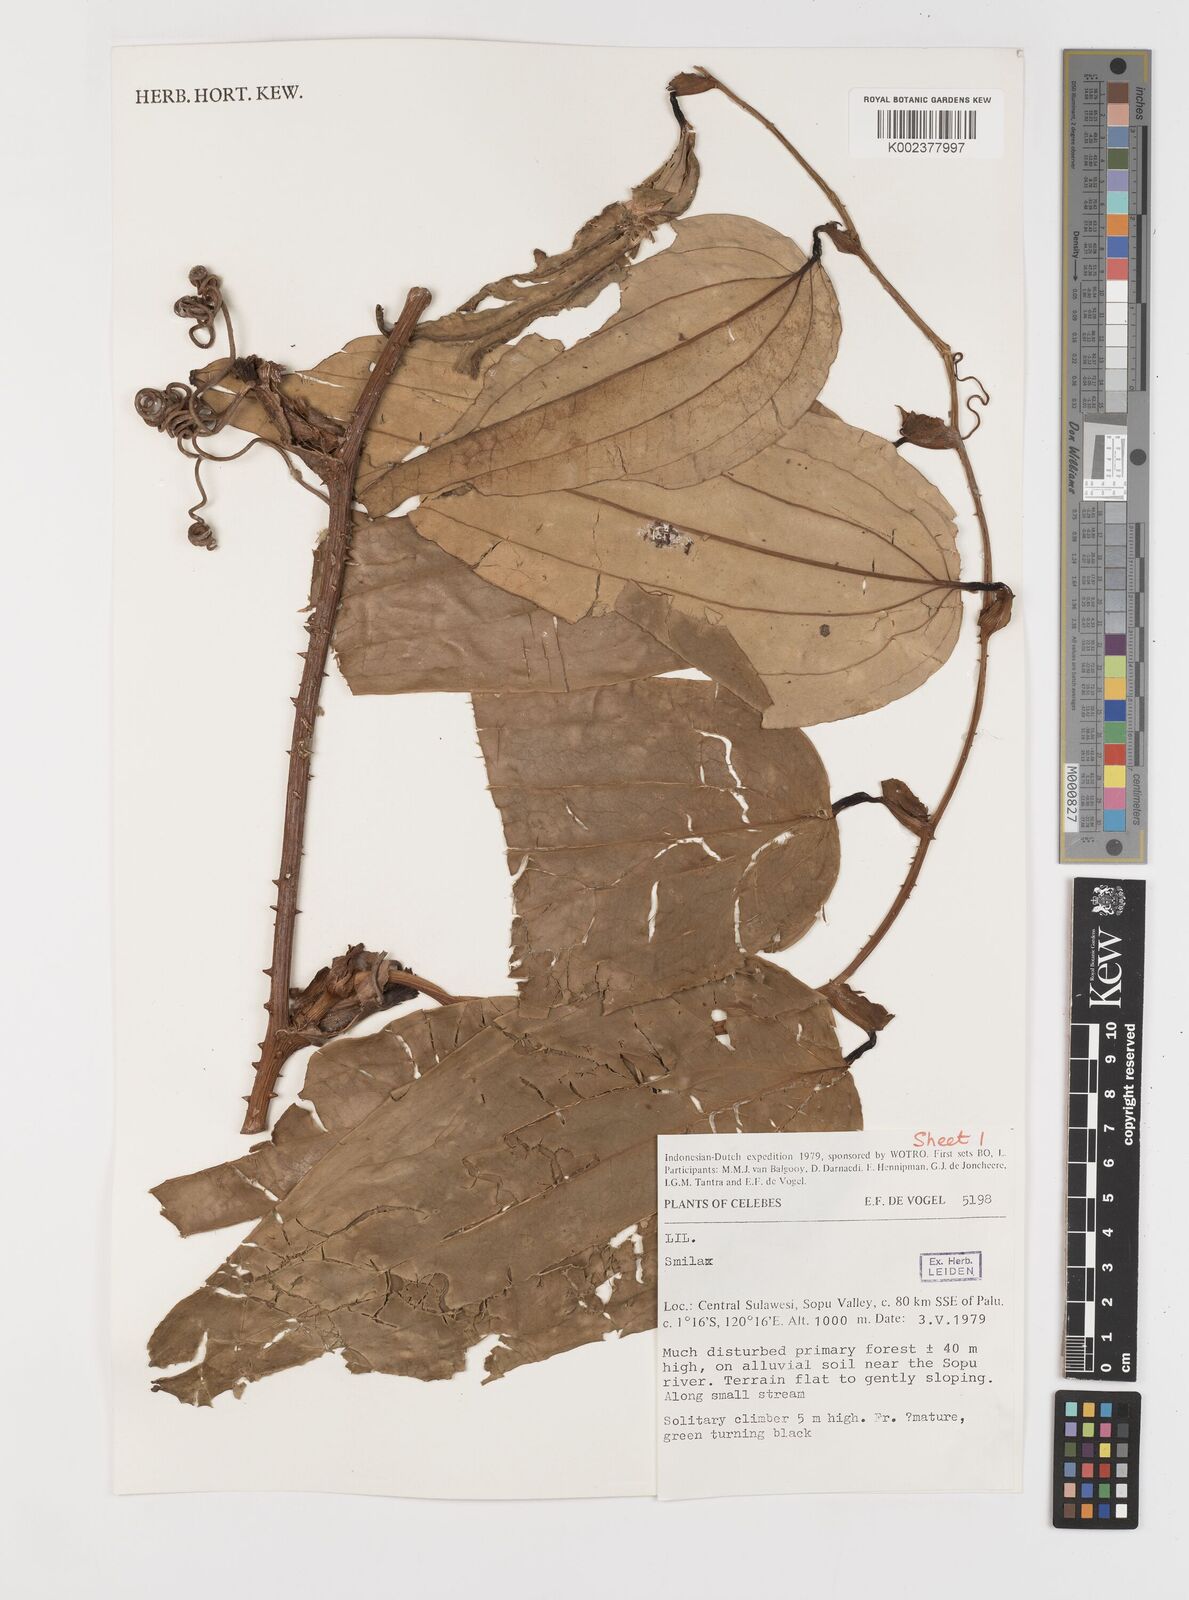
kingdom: Plantae
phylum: Tracheophyta
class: Liliopsida
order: Liliales
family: Smilacaceae
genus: Smilax
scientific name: Smilax
